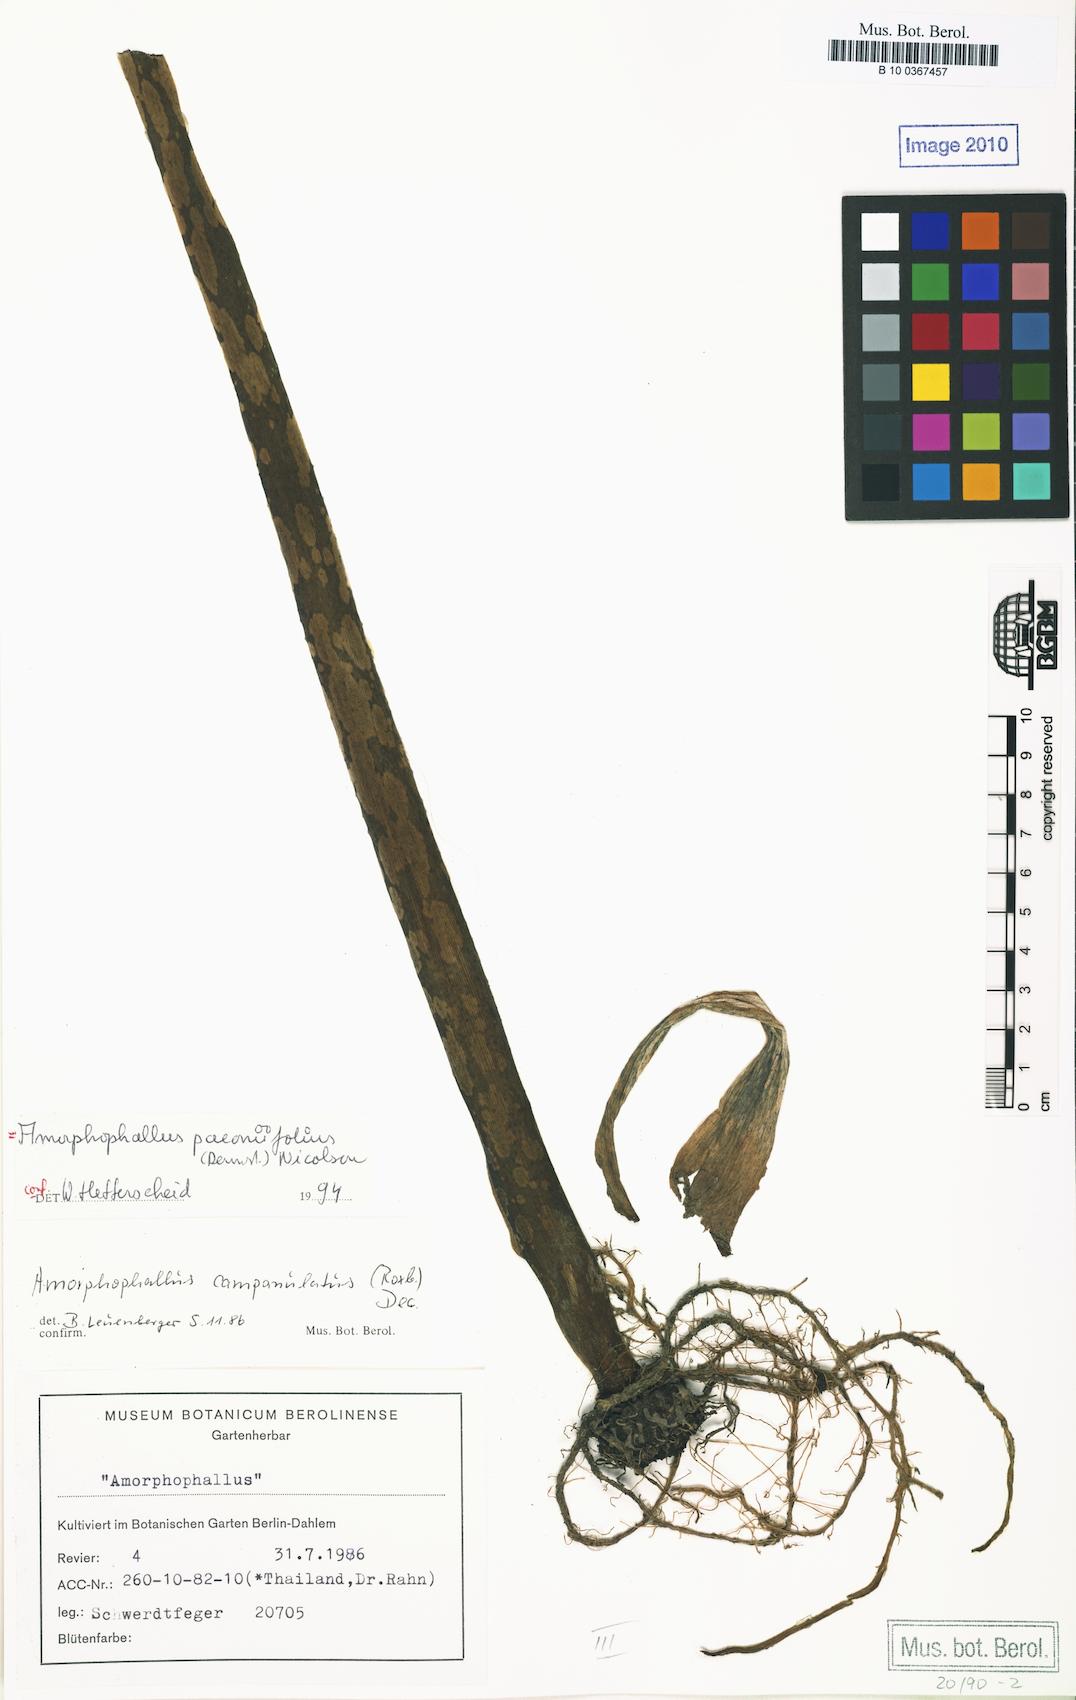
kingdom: Plantae
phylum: Tracheophyta
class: Liliopsida
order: Alismatales
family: Araceae
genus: Amorphophallus
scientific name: Amorphophallus paeoniifolius
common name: Telinga-potato
